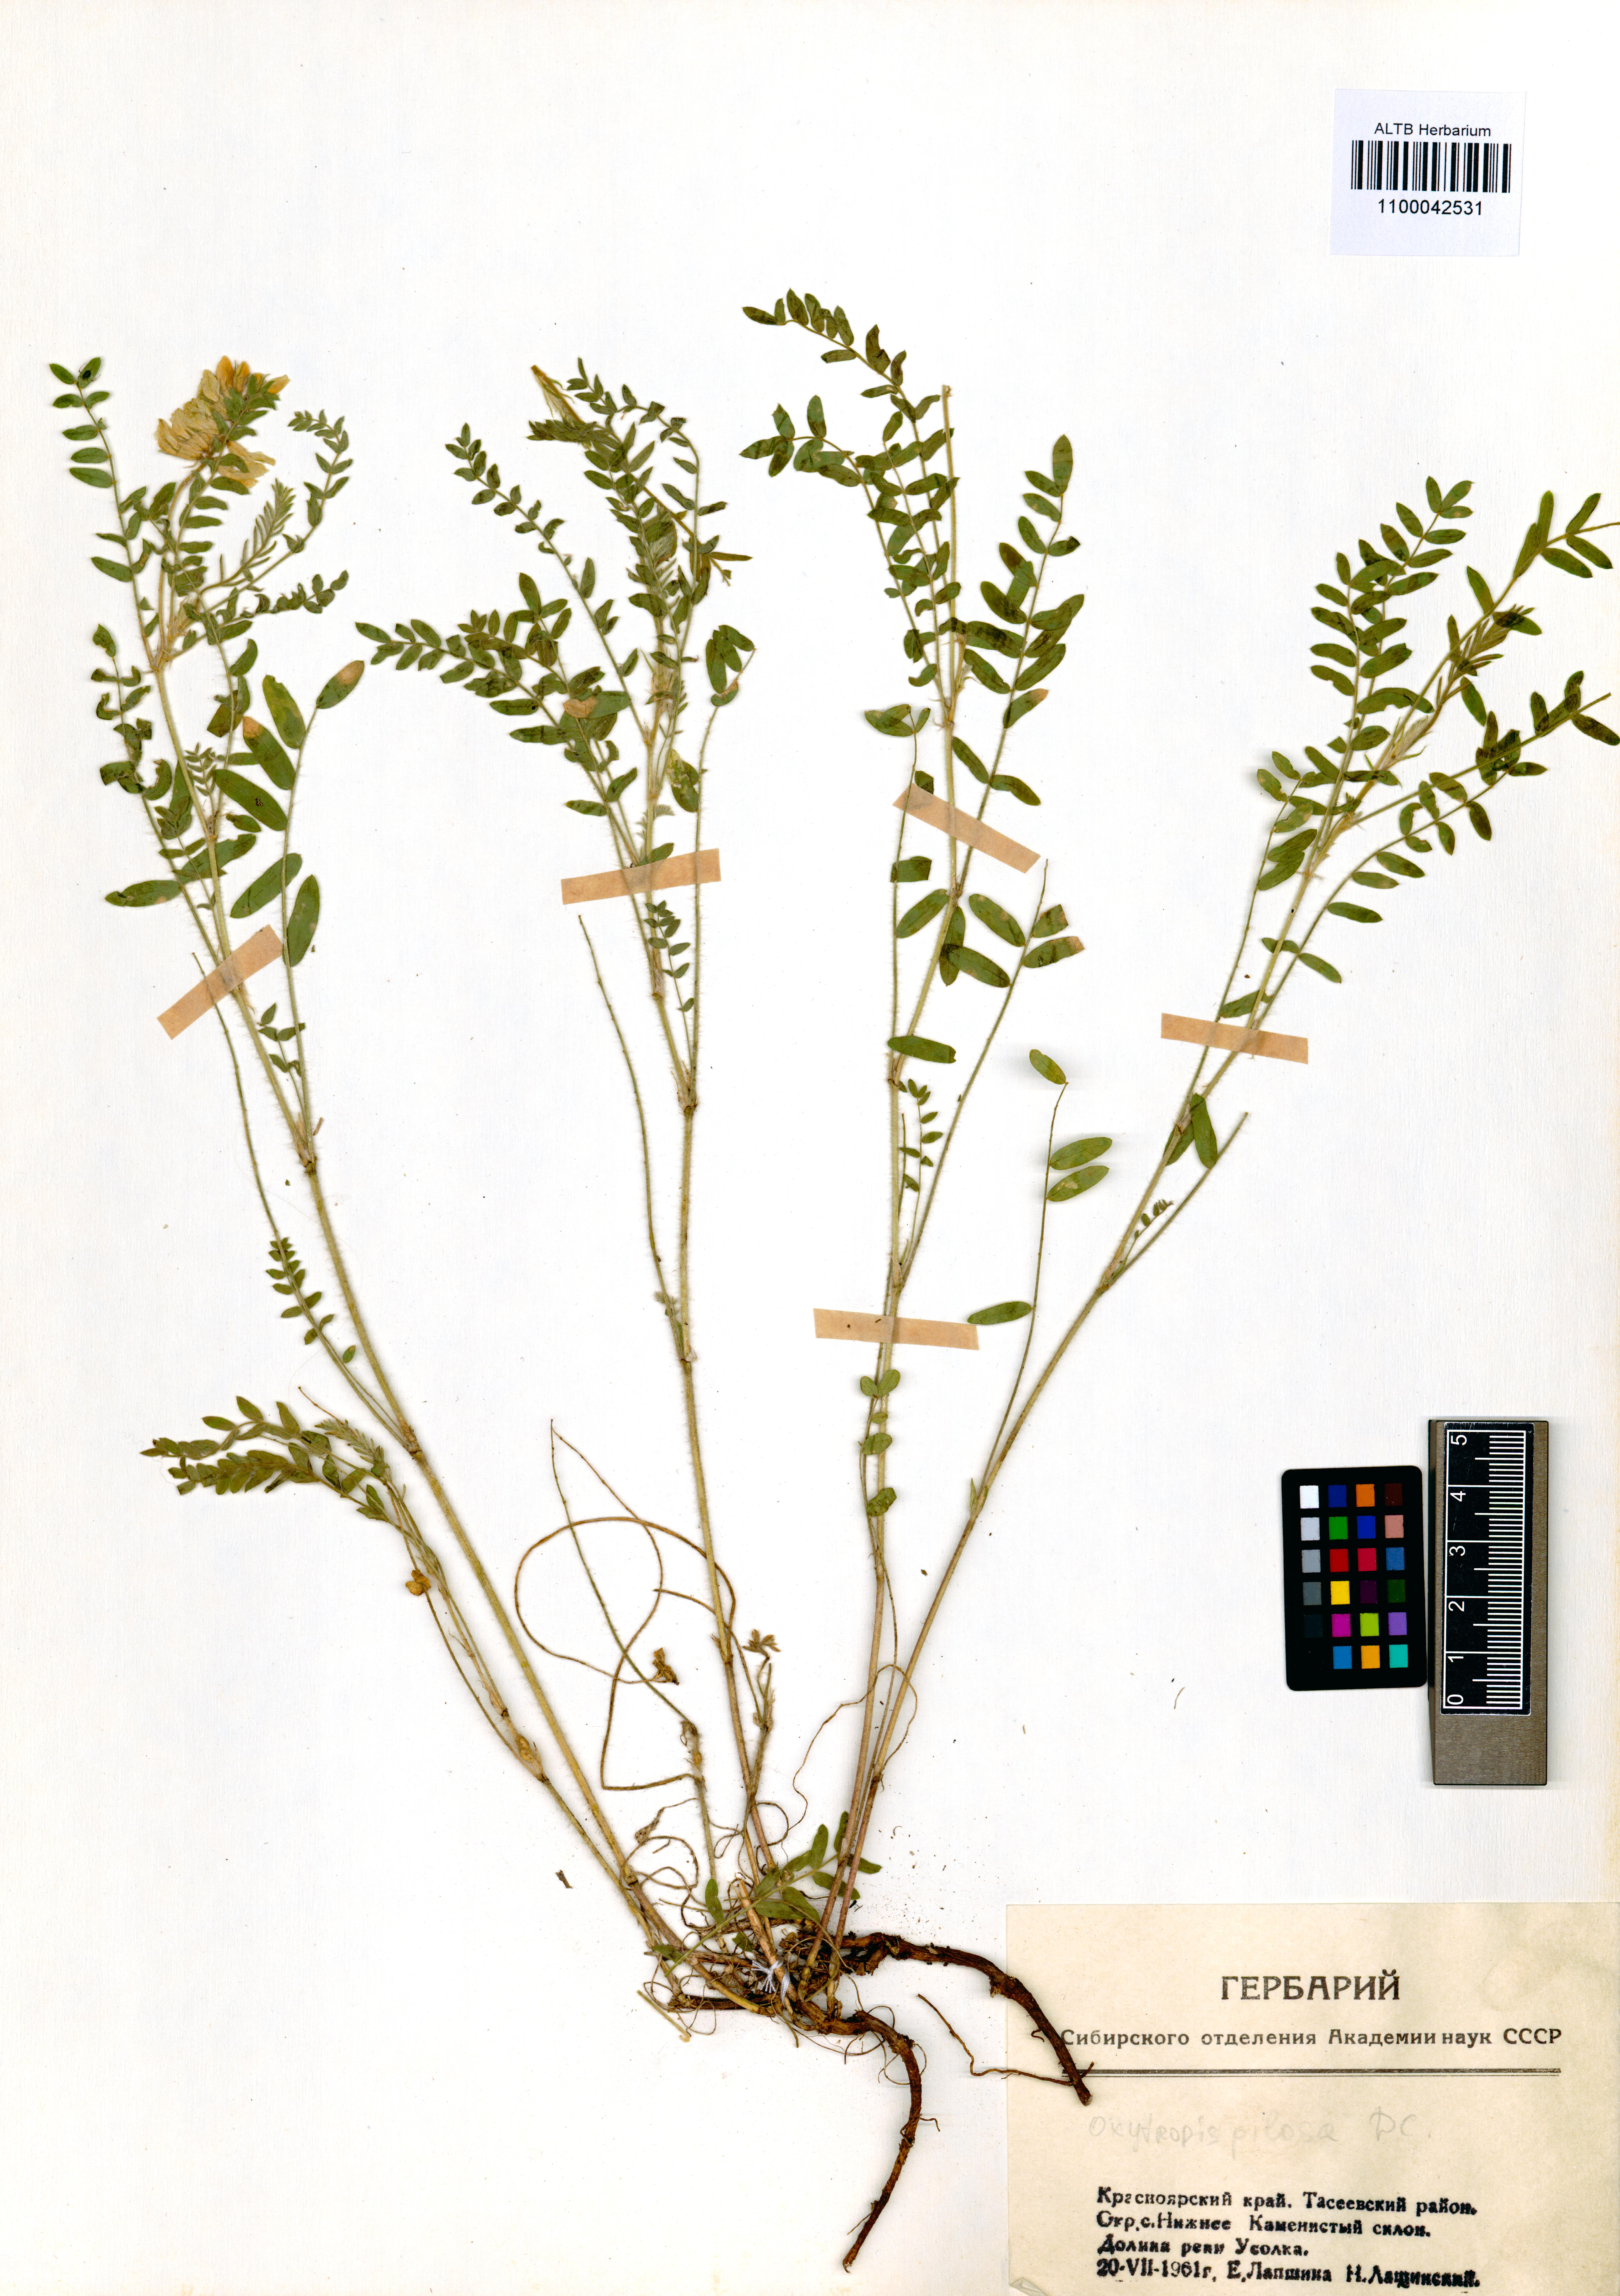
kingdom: Plantae
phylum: Tracheophyta
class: Magnoliopsida
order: Fabales
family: Fabaceae
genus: Oxytropis
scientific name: Oxytropis pilosa
